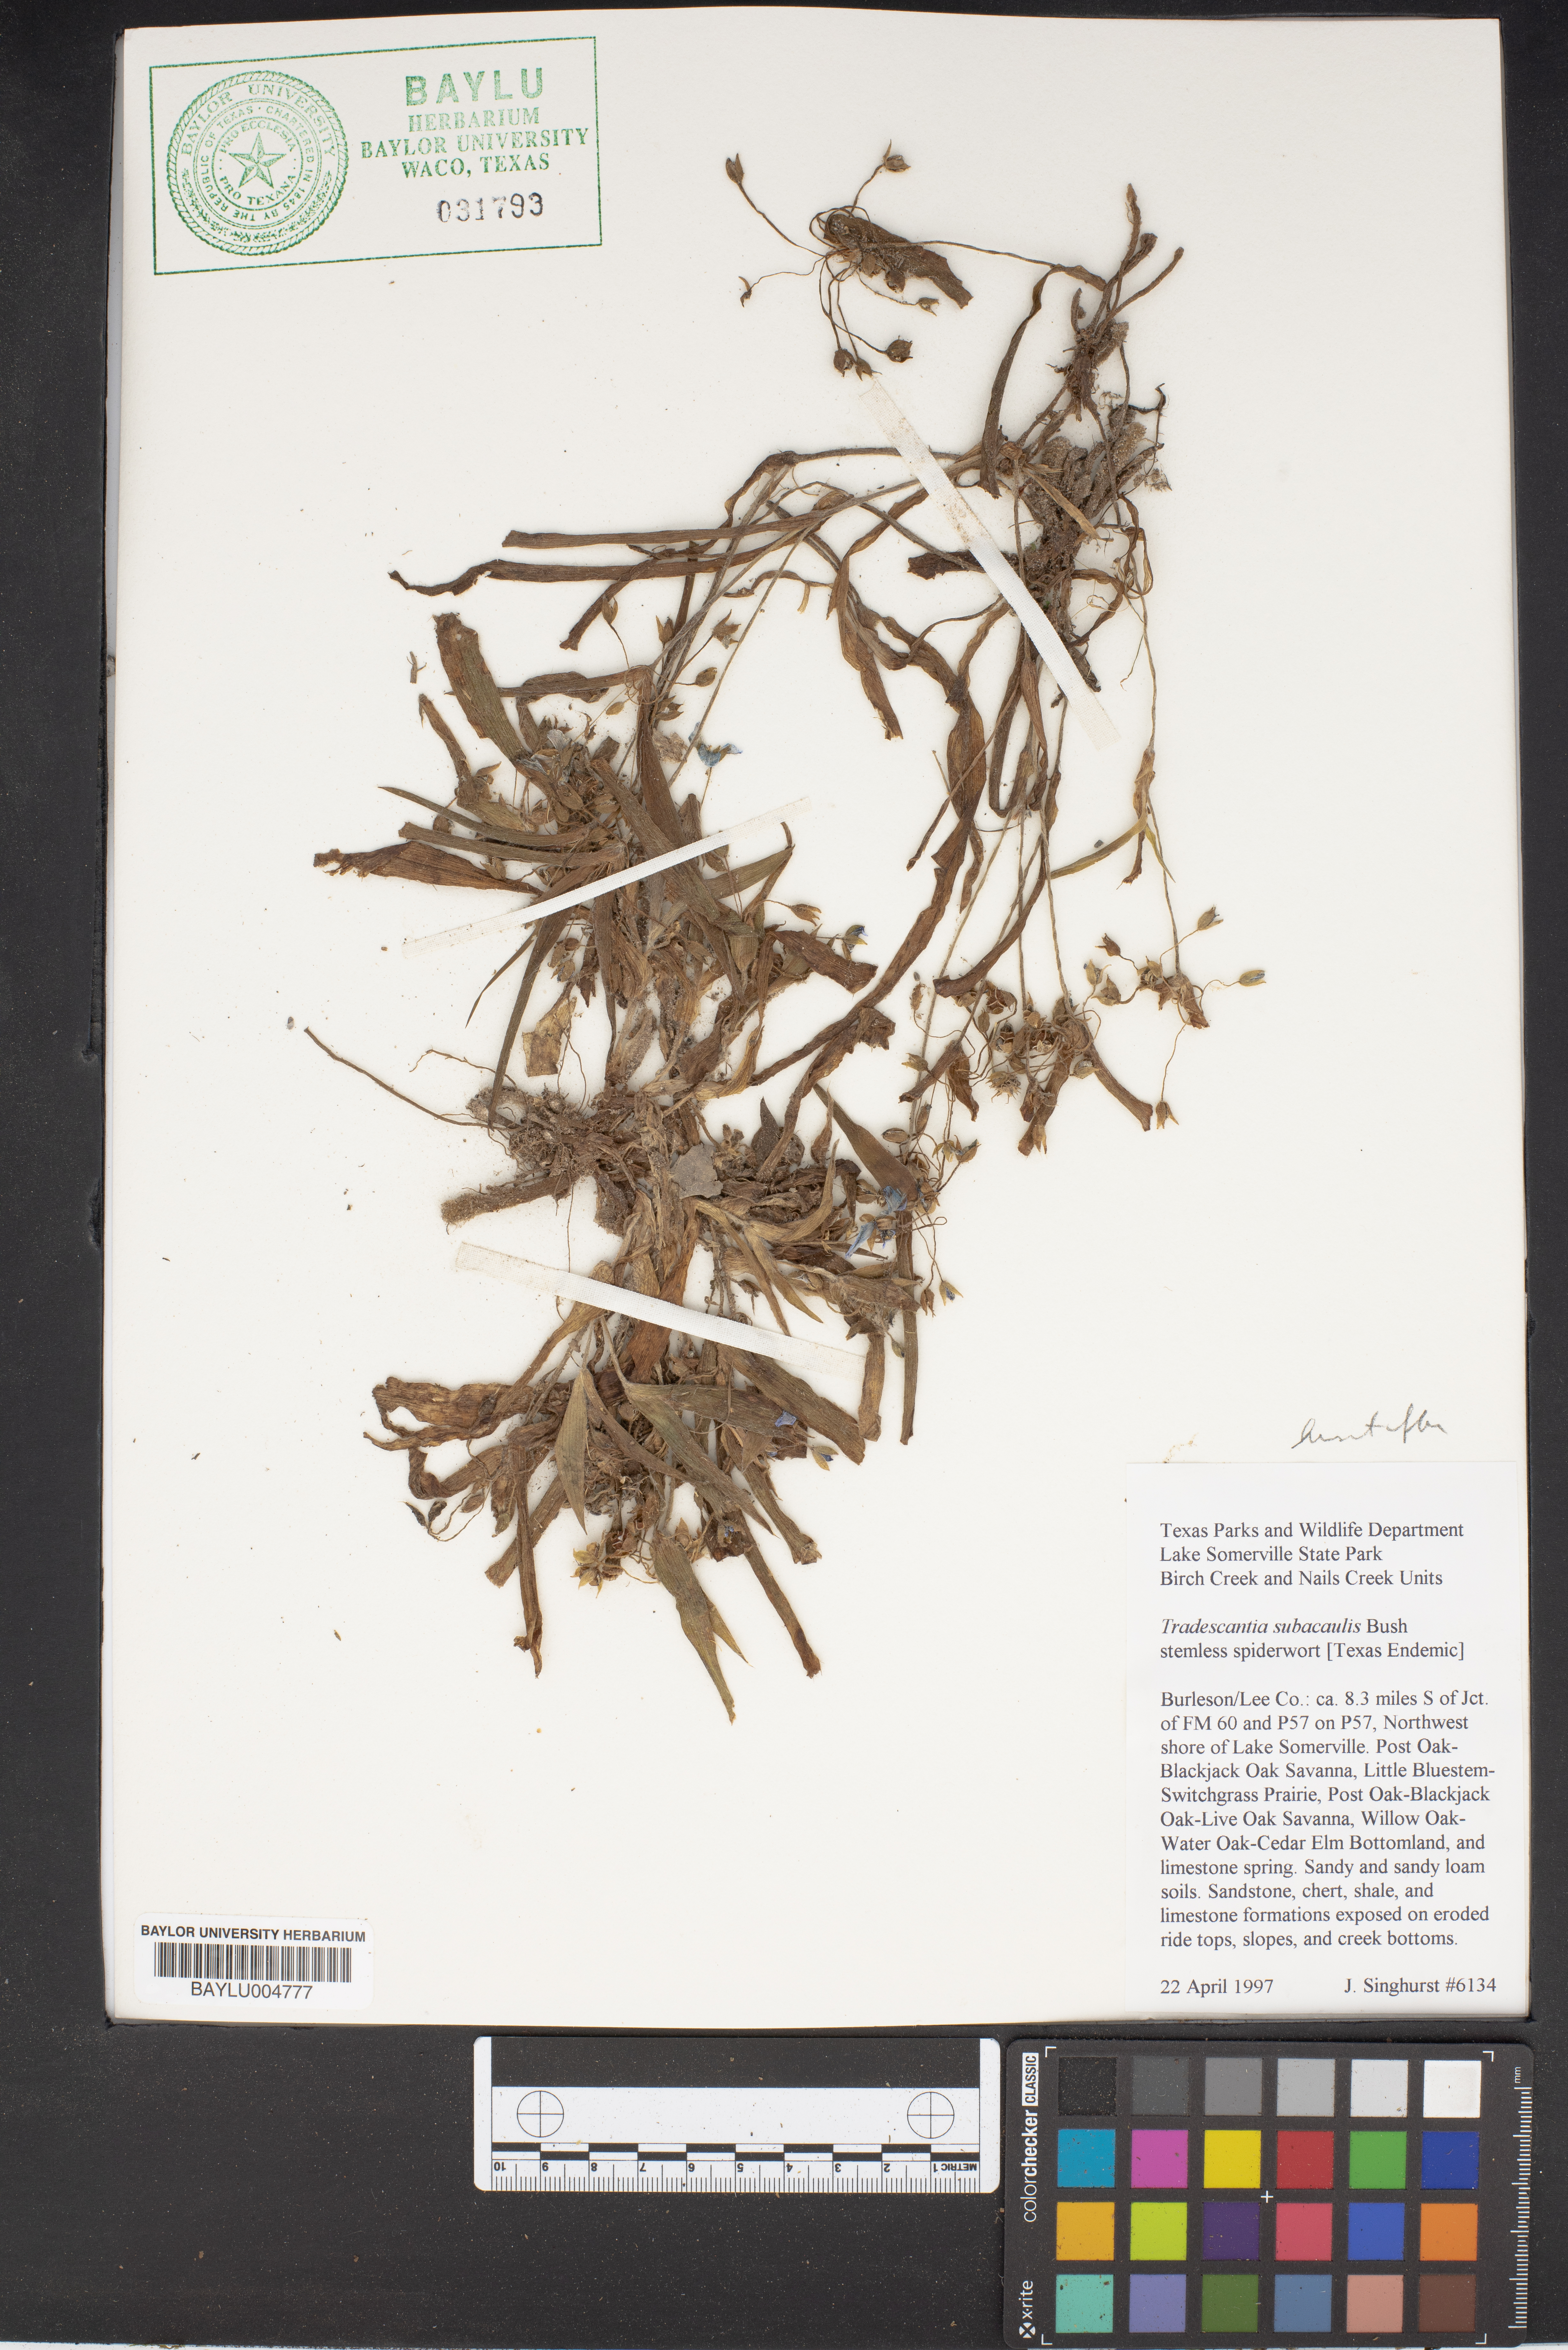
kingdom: Plantae
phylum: Tracheophyta
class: Liliopsida
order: Commelinales
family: Commelinaceae
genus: Tradescantia
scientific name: Tradescantia subacaulis
